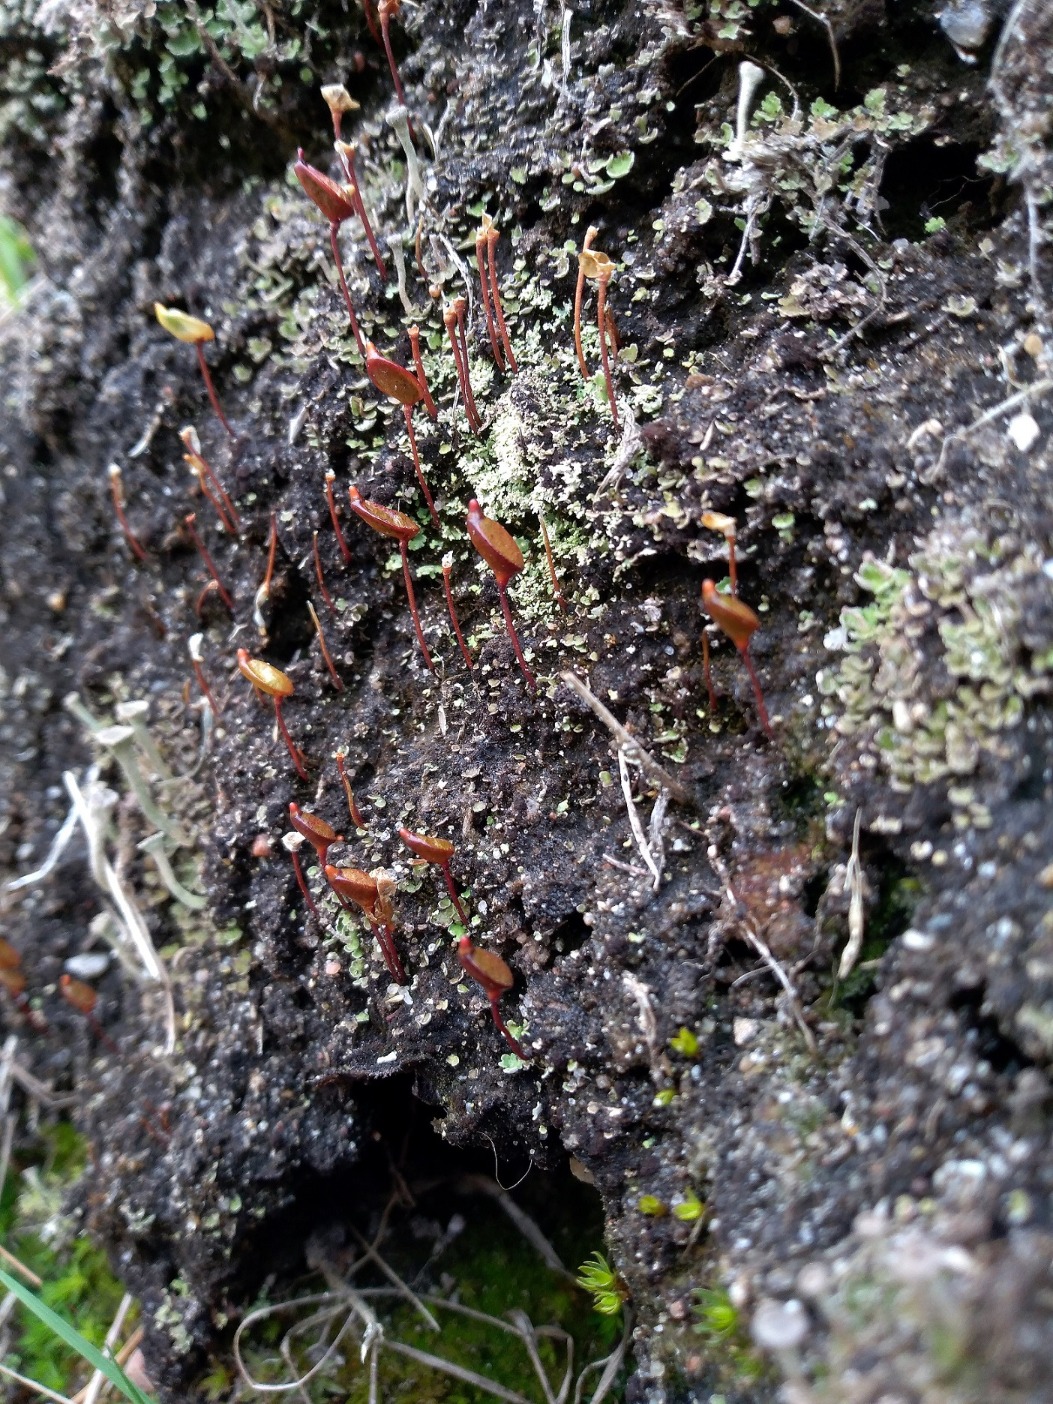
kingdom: Plantae
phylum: Bryophyta
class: Bryopsida
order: Buxbaumiales
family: Buxbaumiaceae
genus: Buxbaumia
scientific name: Buxbaumia aphylla
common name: Rundkapslet buxbaumia
